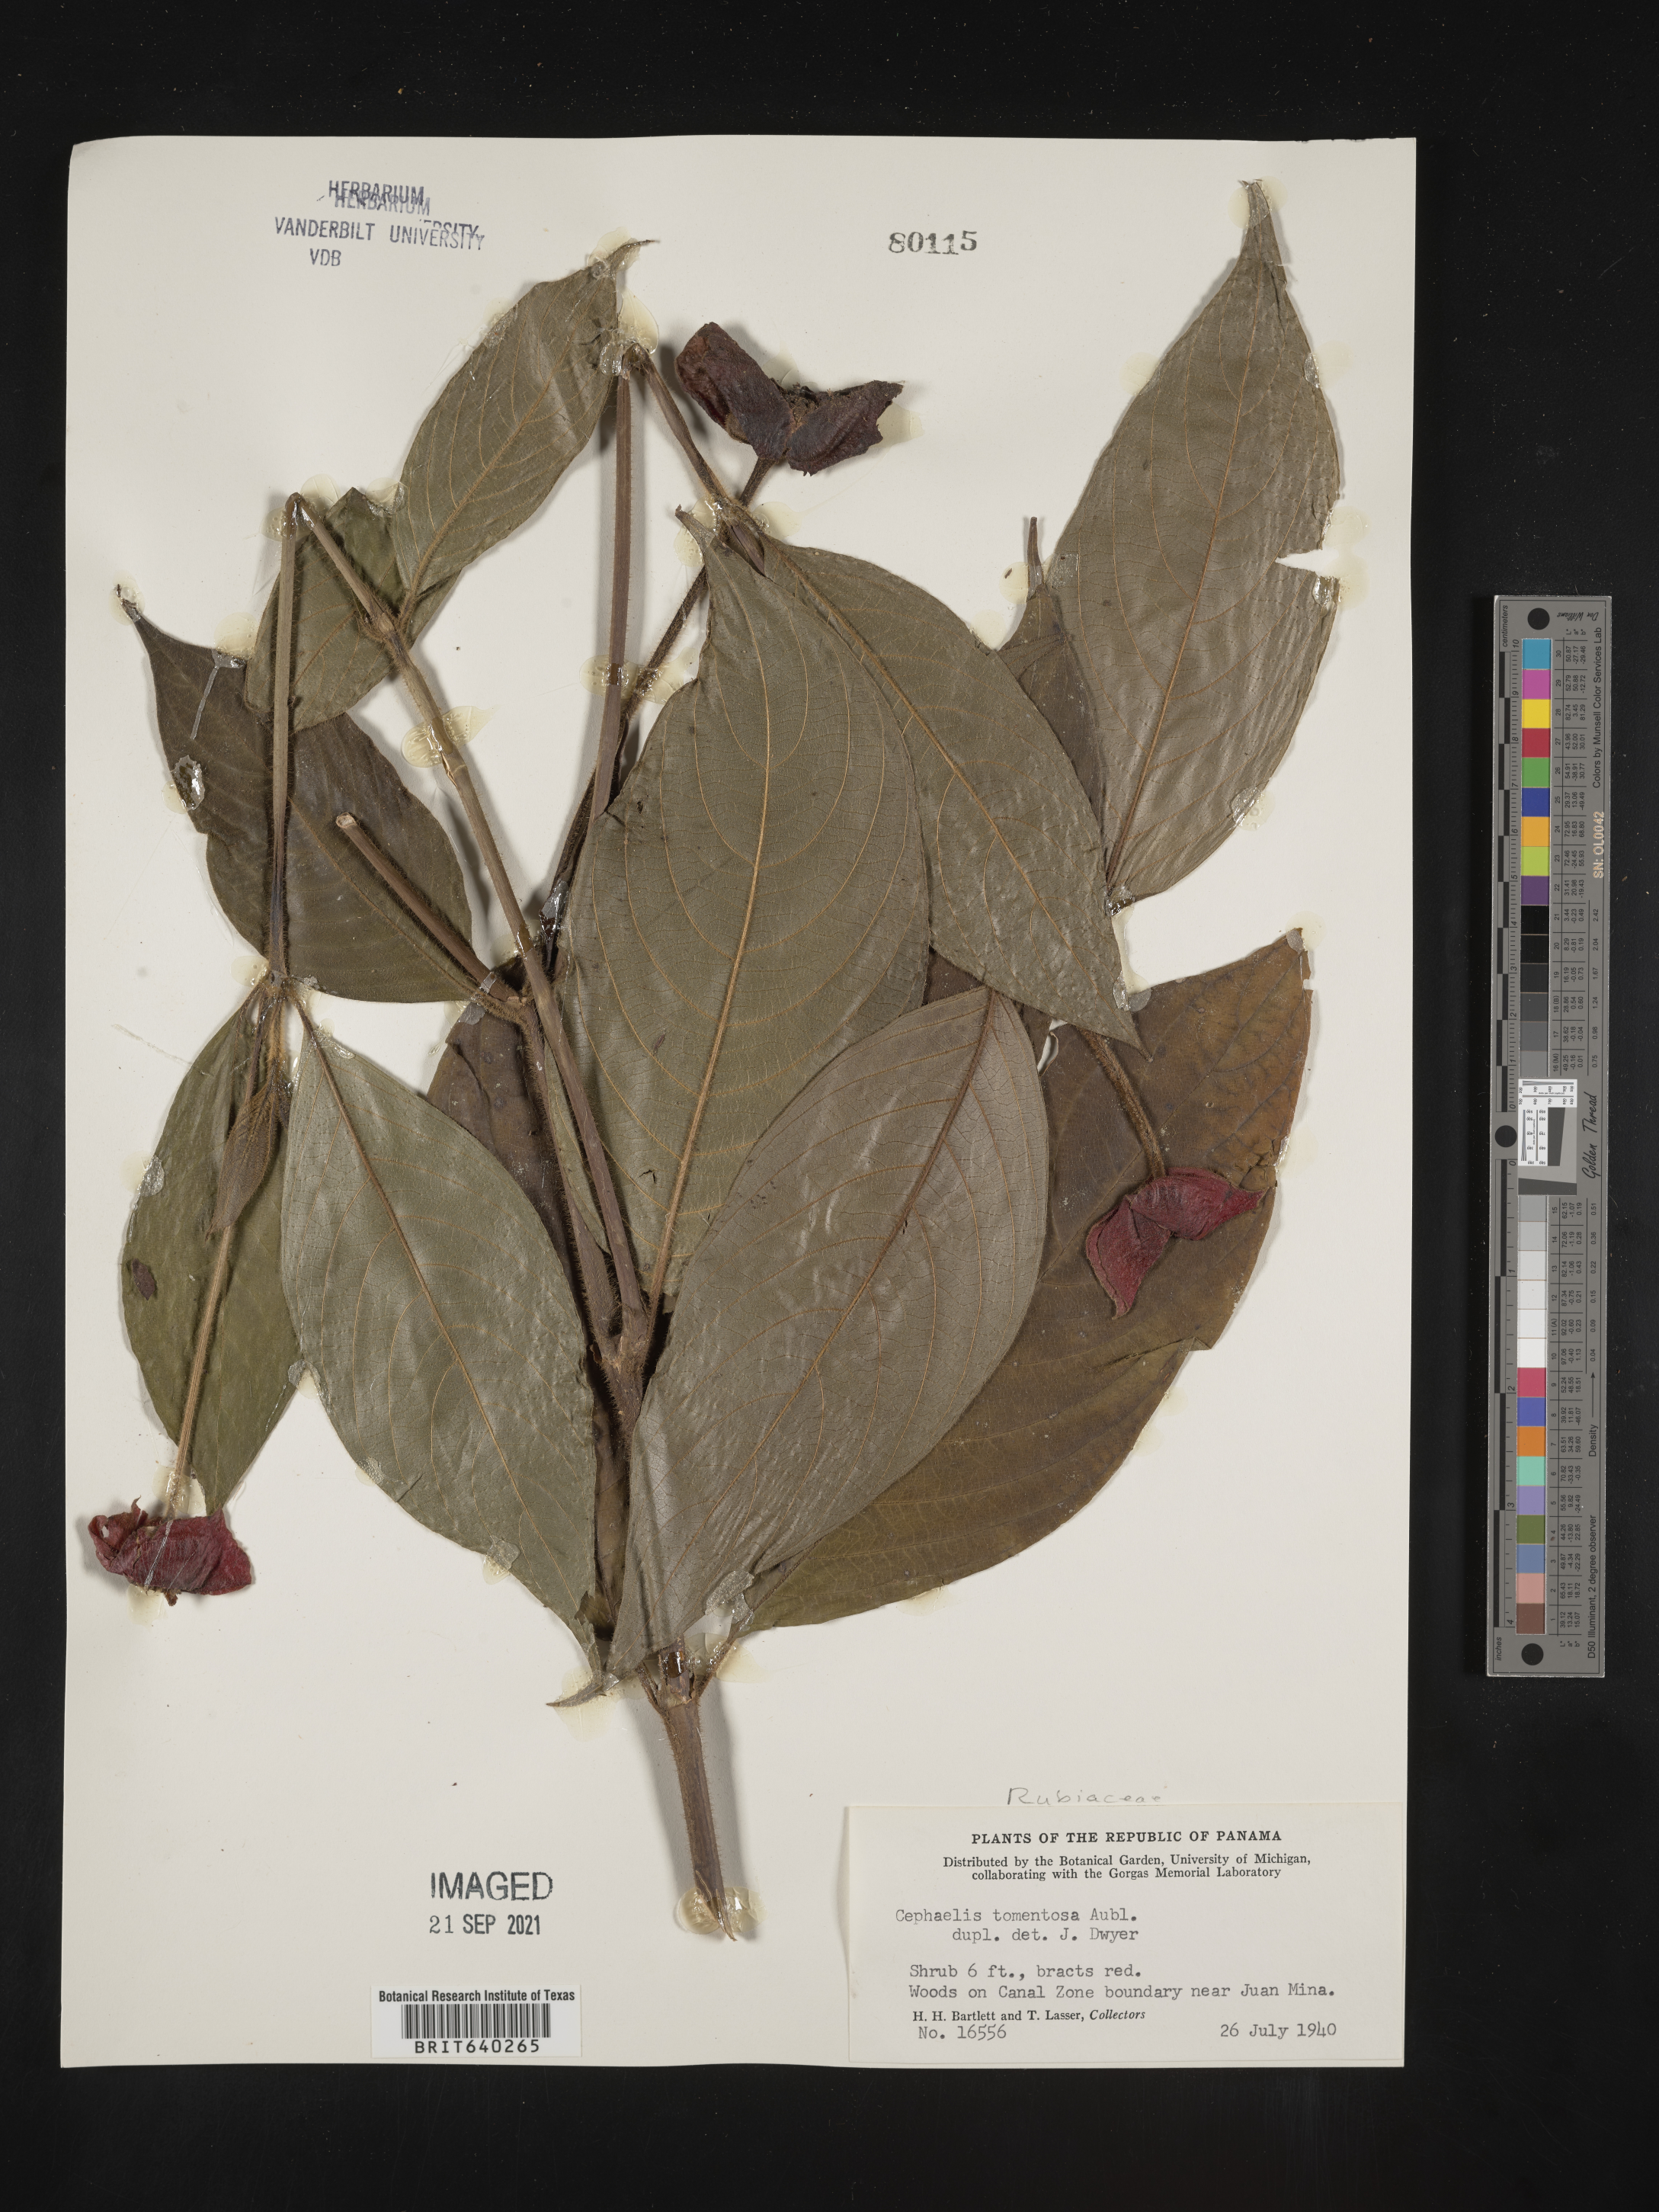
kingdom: Plantae
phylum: Tracheophyta
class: Magnoliopsida
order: Gentianales
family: Rubiaceae
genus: Psychotria
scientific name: Psychotria
